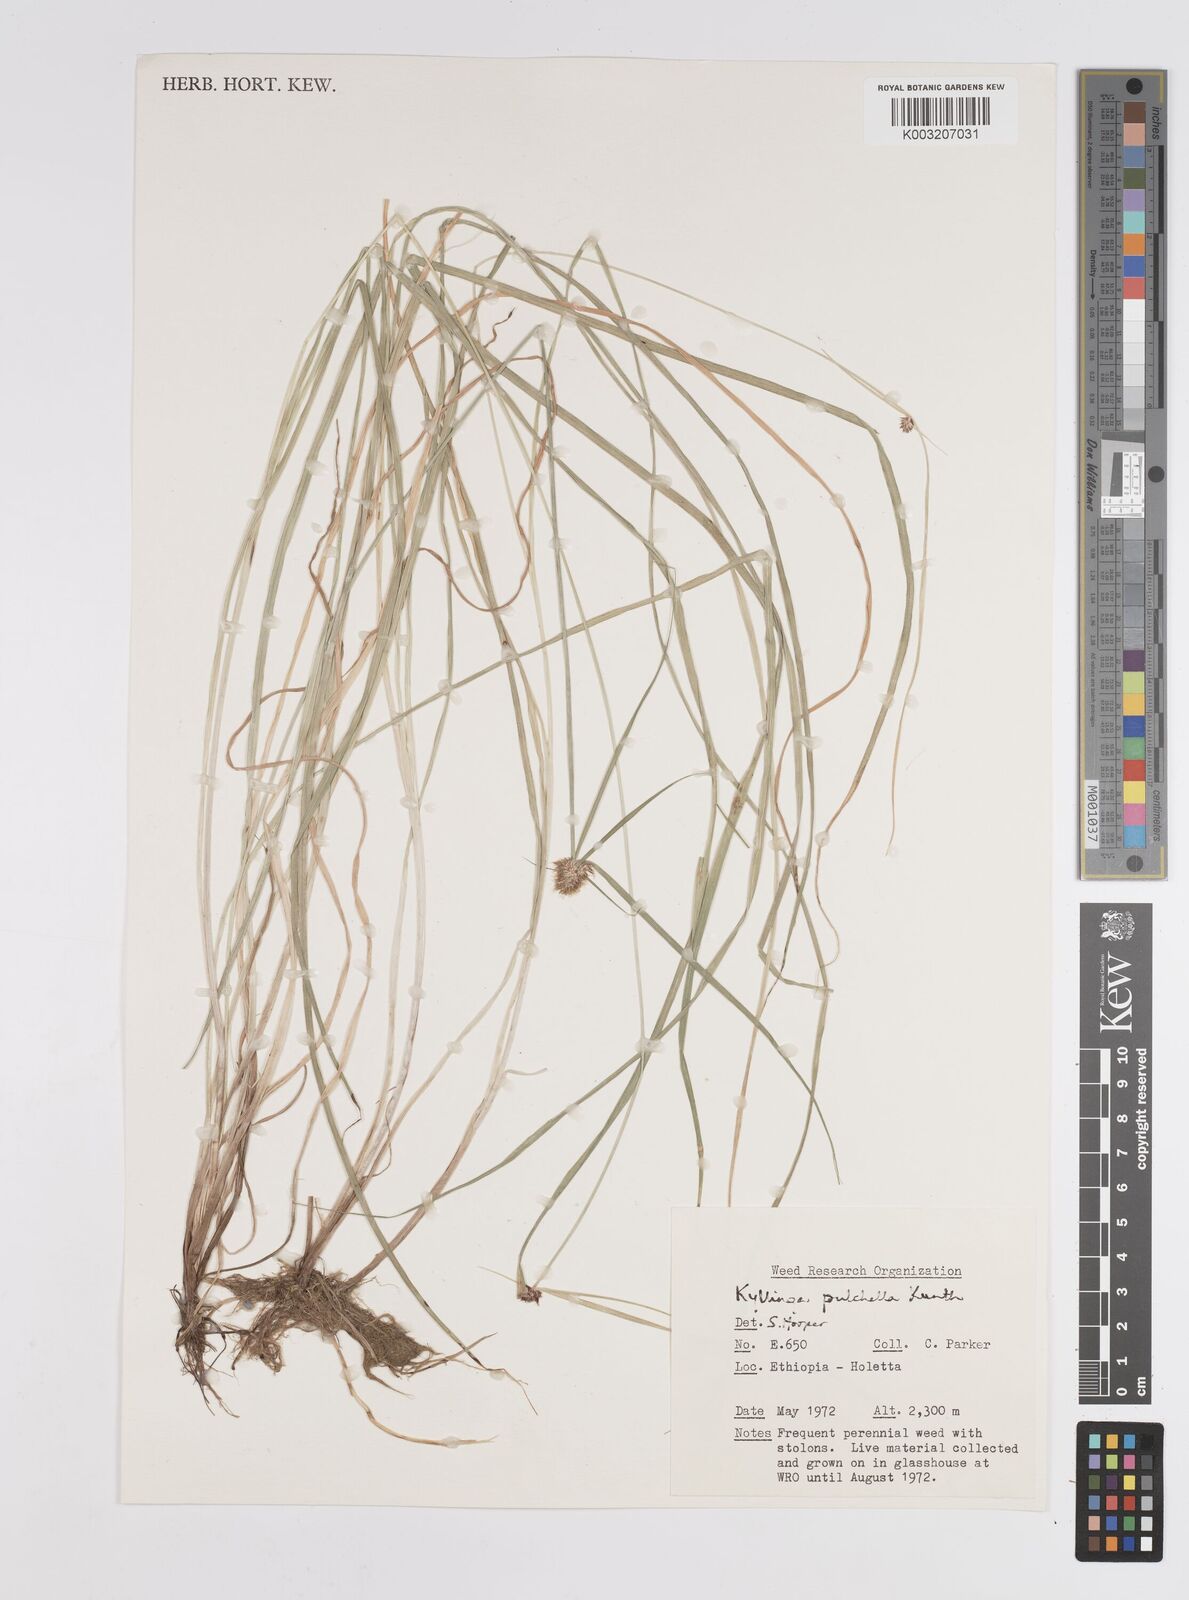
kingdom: Plantae
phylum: Tracheophyta
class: Liliopsida
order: Poales
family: Cyperaceae
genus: Cyperus
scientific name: Cyperus
